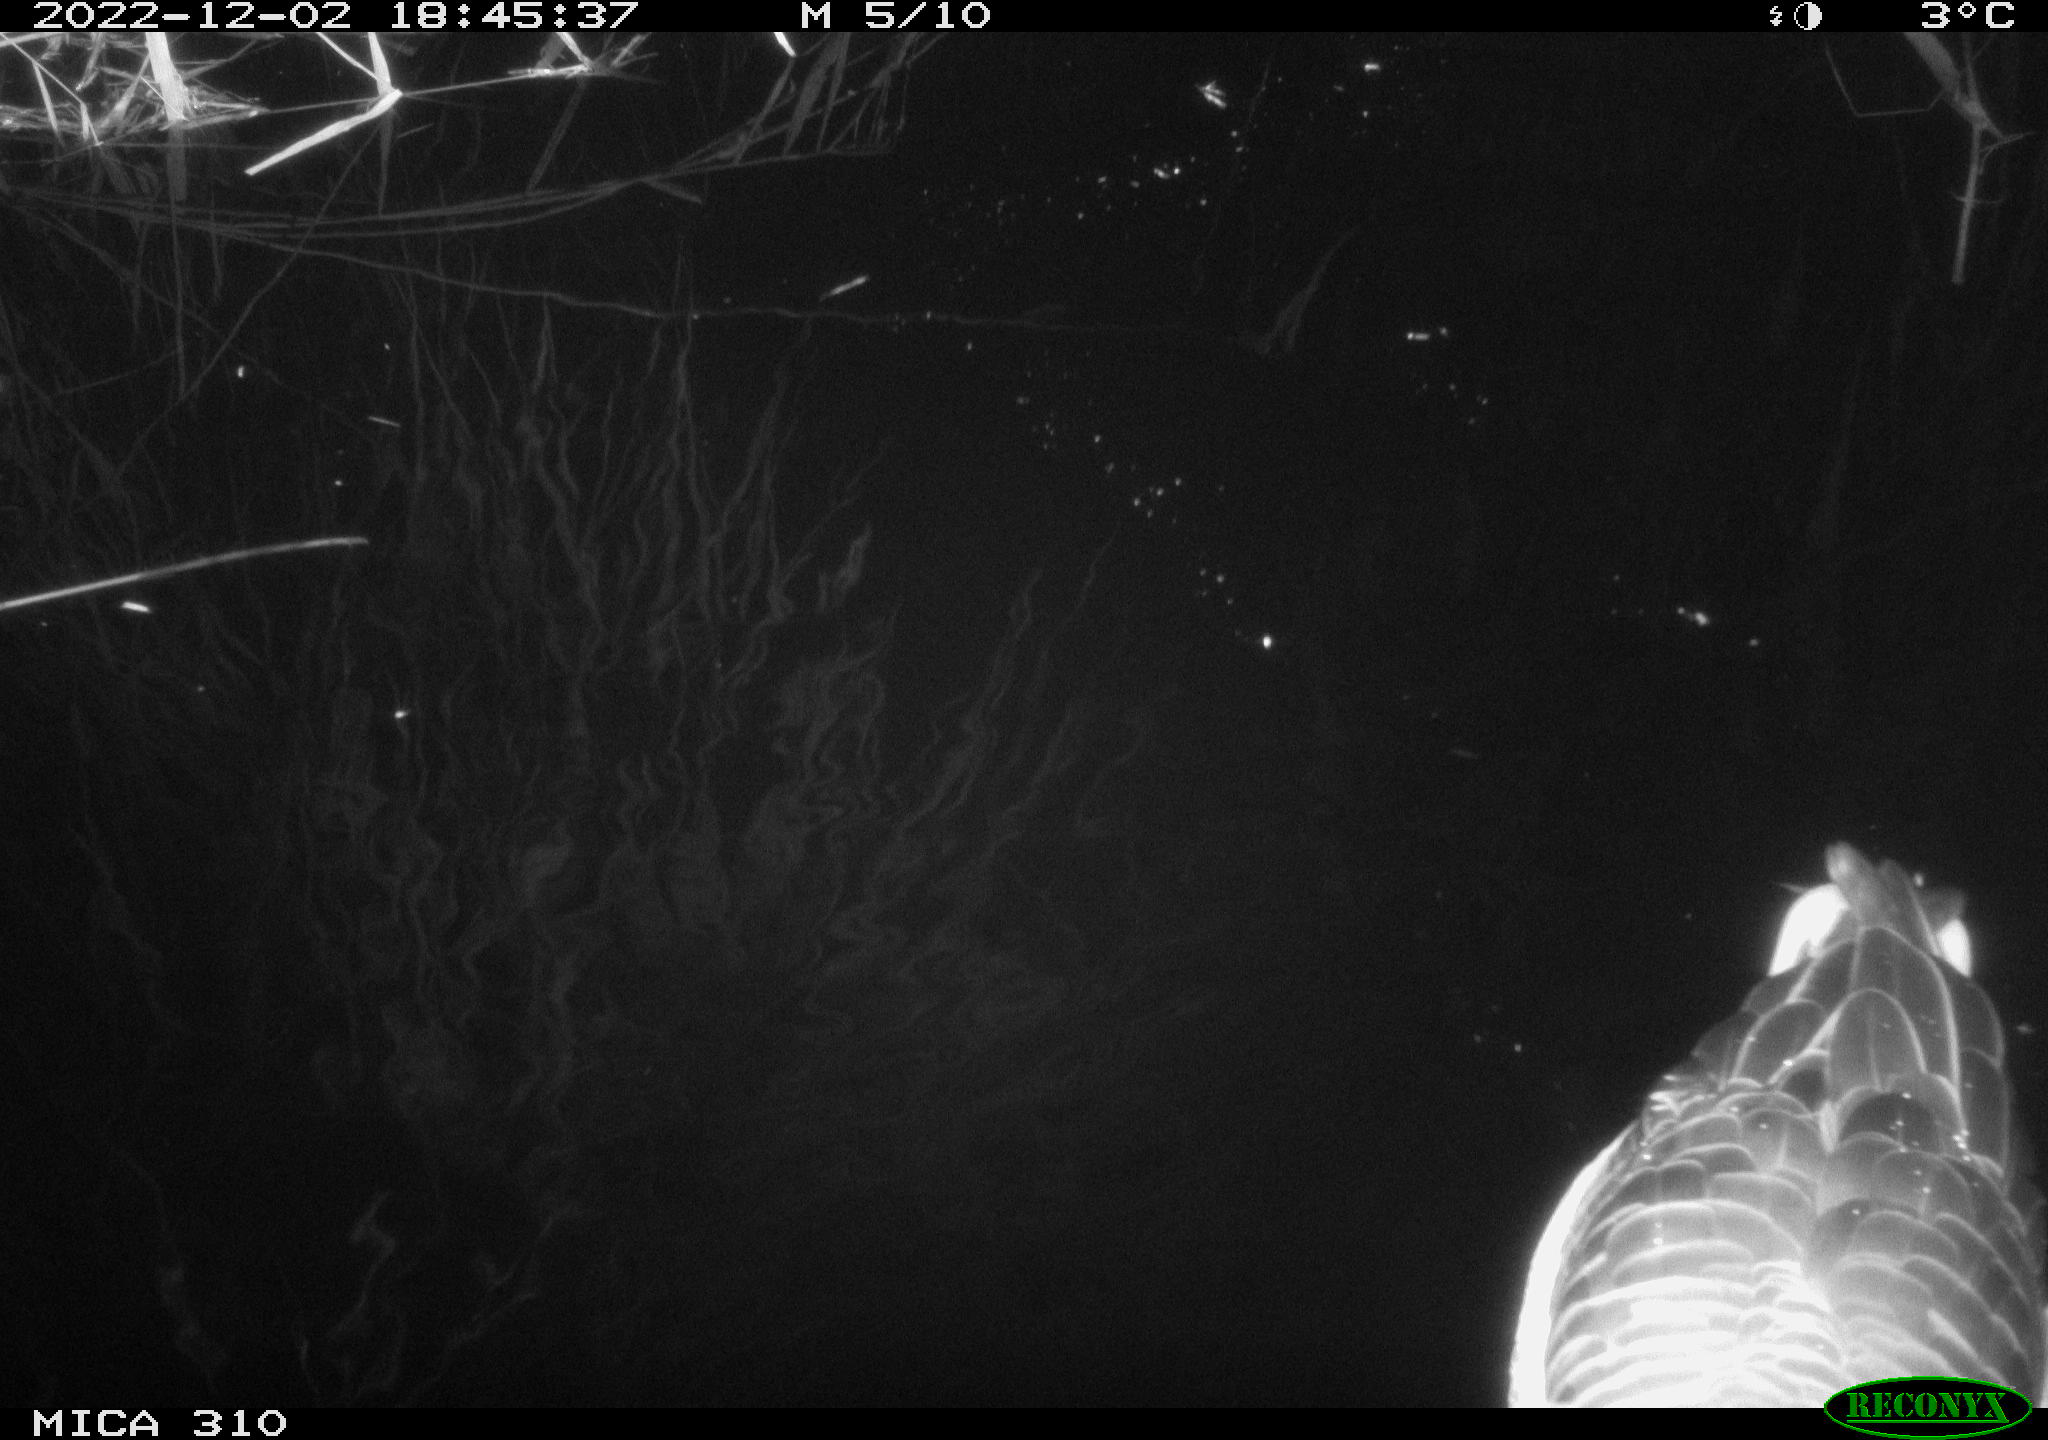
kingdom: Animalia
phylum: Chordata
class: Aves
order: Anseriformes
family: Anatidae
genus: Anas
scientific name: Anas
